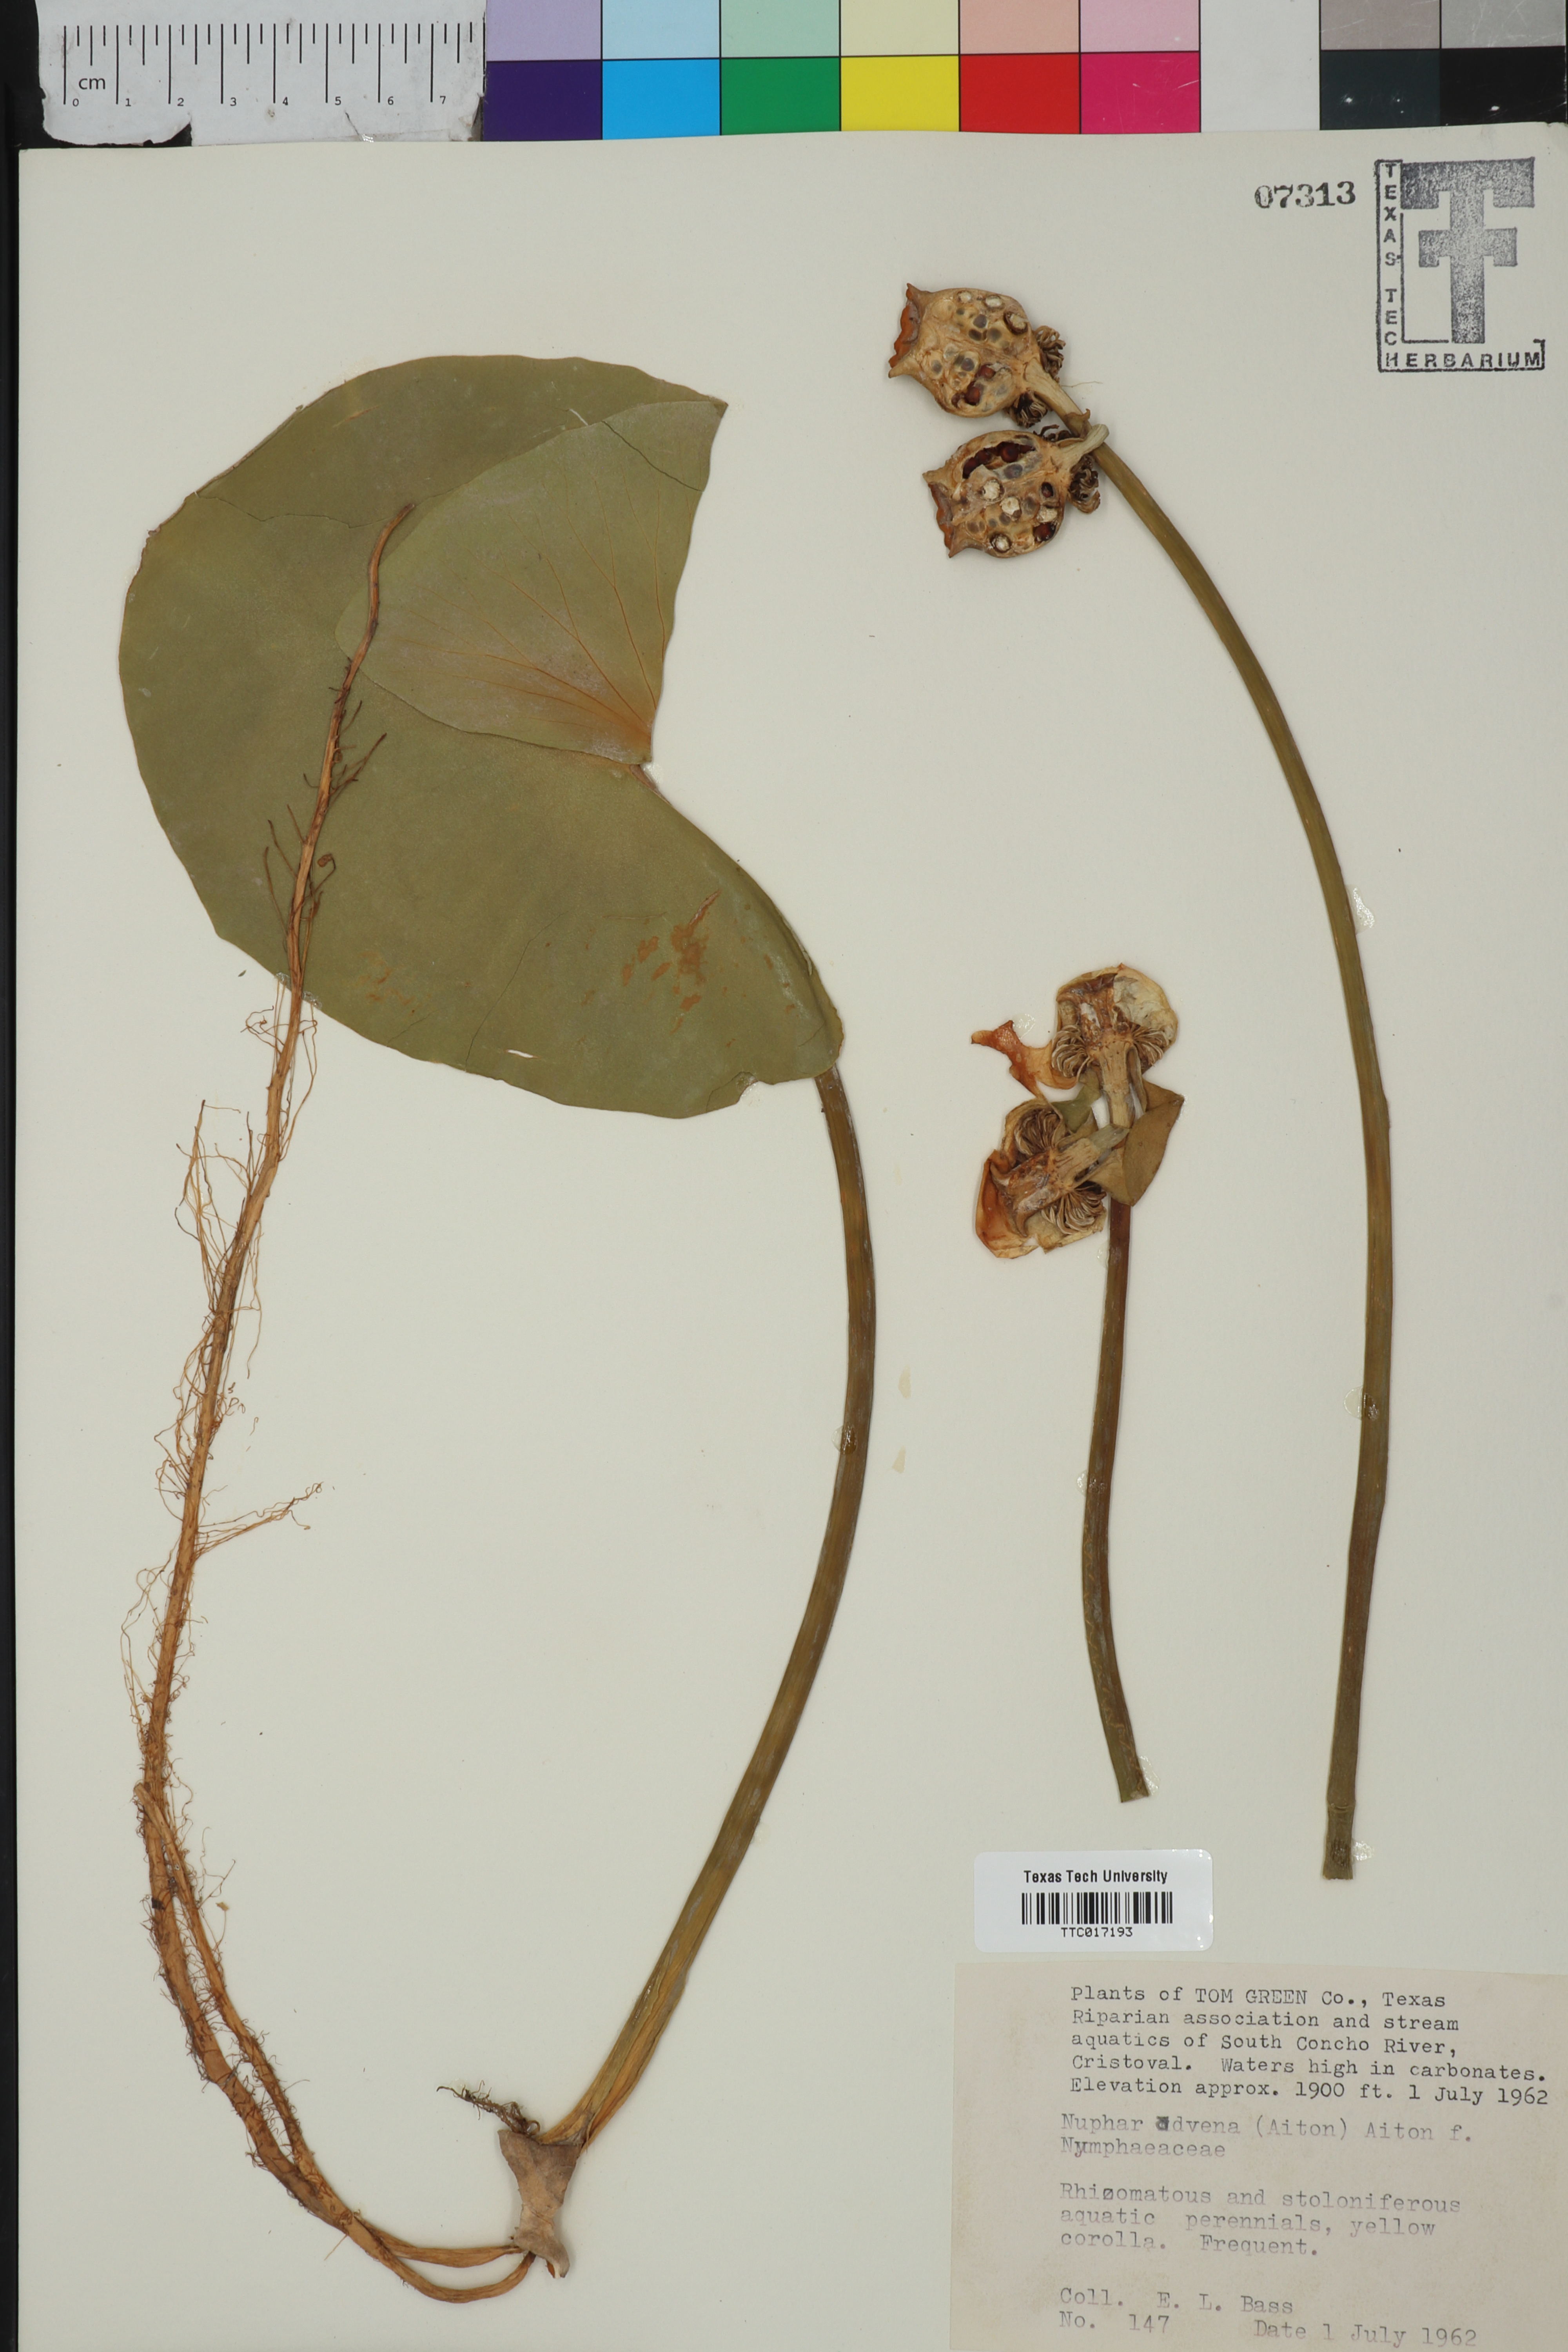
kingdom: Plantae
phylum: Tracheophyta
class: Magnoliopsida
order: Nymphaeales
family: Nymphaeaceae
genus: Nuphar
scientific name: Nuphar advena
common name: Spatter-dock
